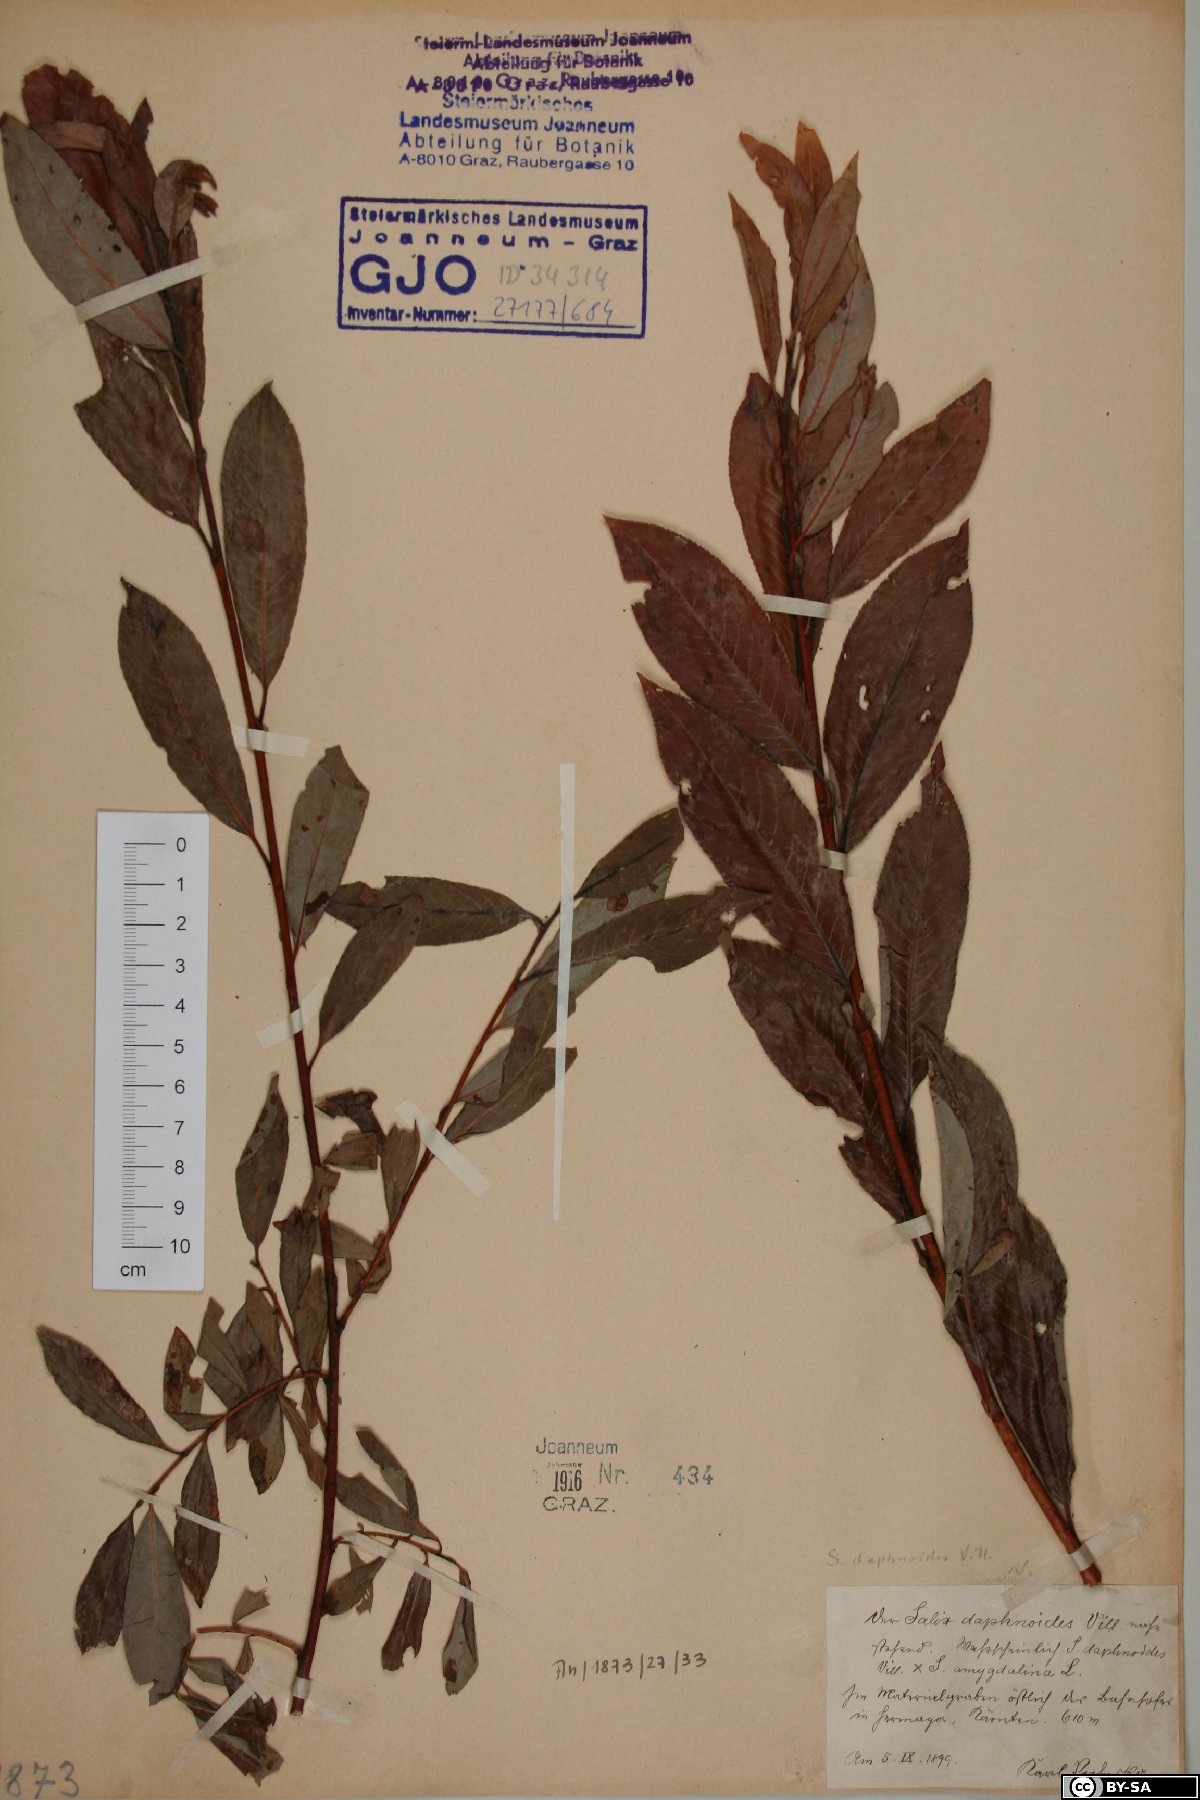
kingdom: Plantae
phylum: Tracheophyta
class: Magnoliopsida
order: Malpighiales
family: Salicaceae
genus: Salix
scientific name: Salix daphnoides
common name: European violet-willow
